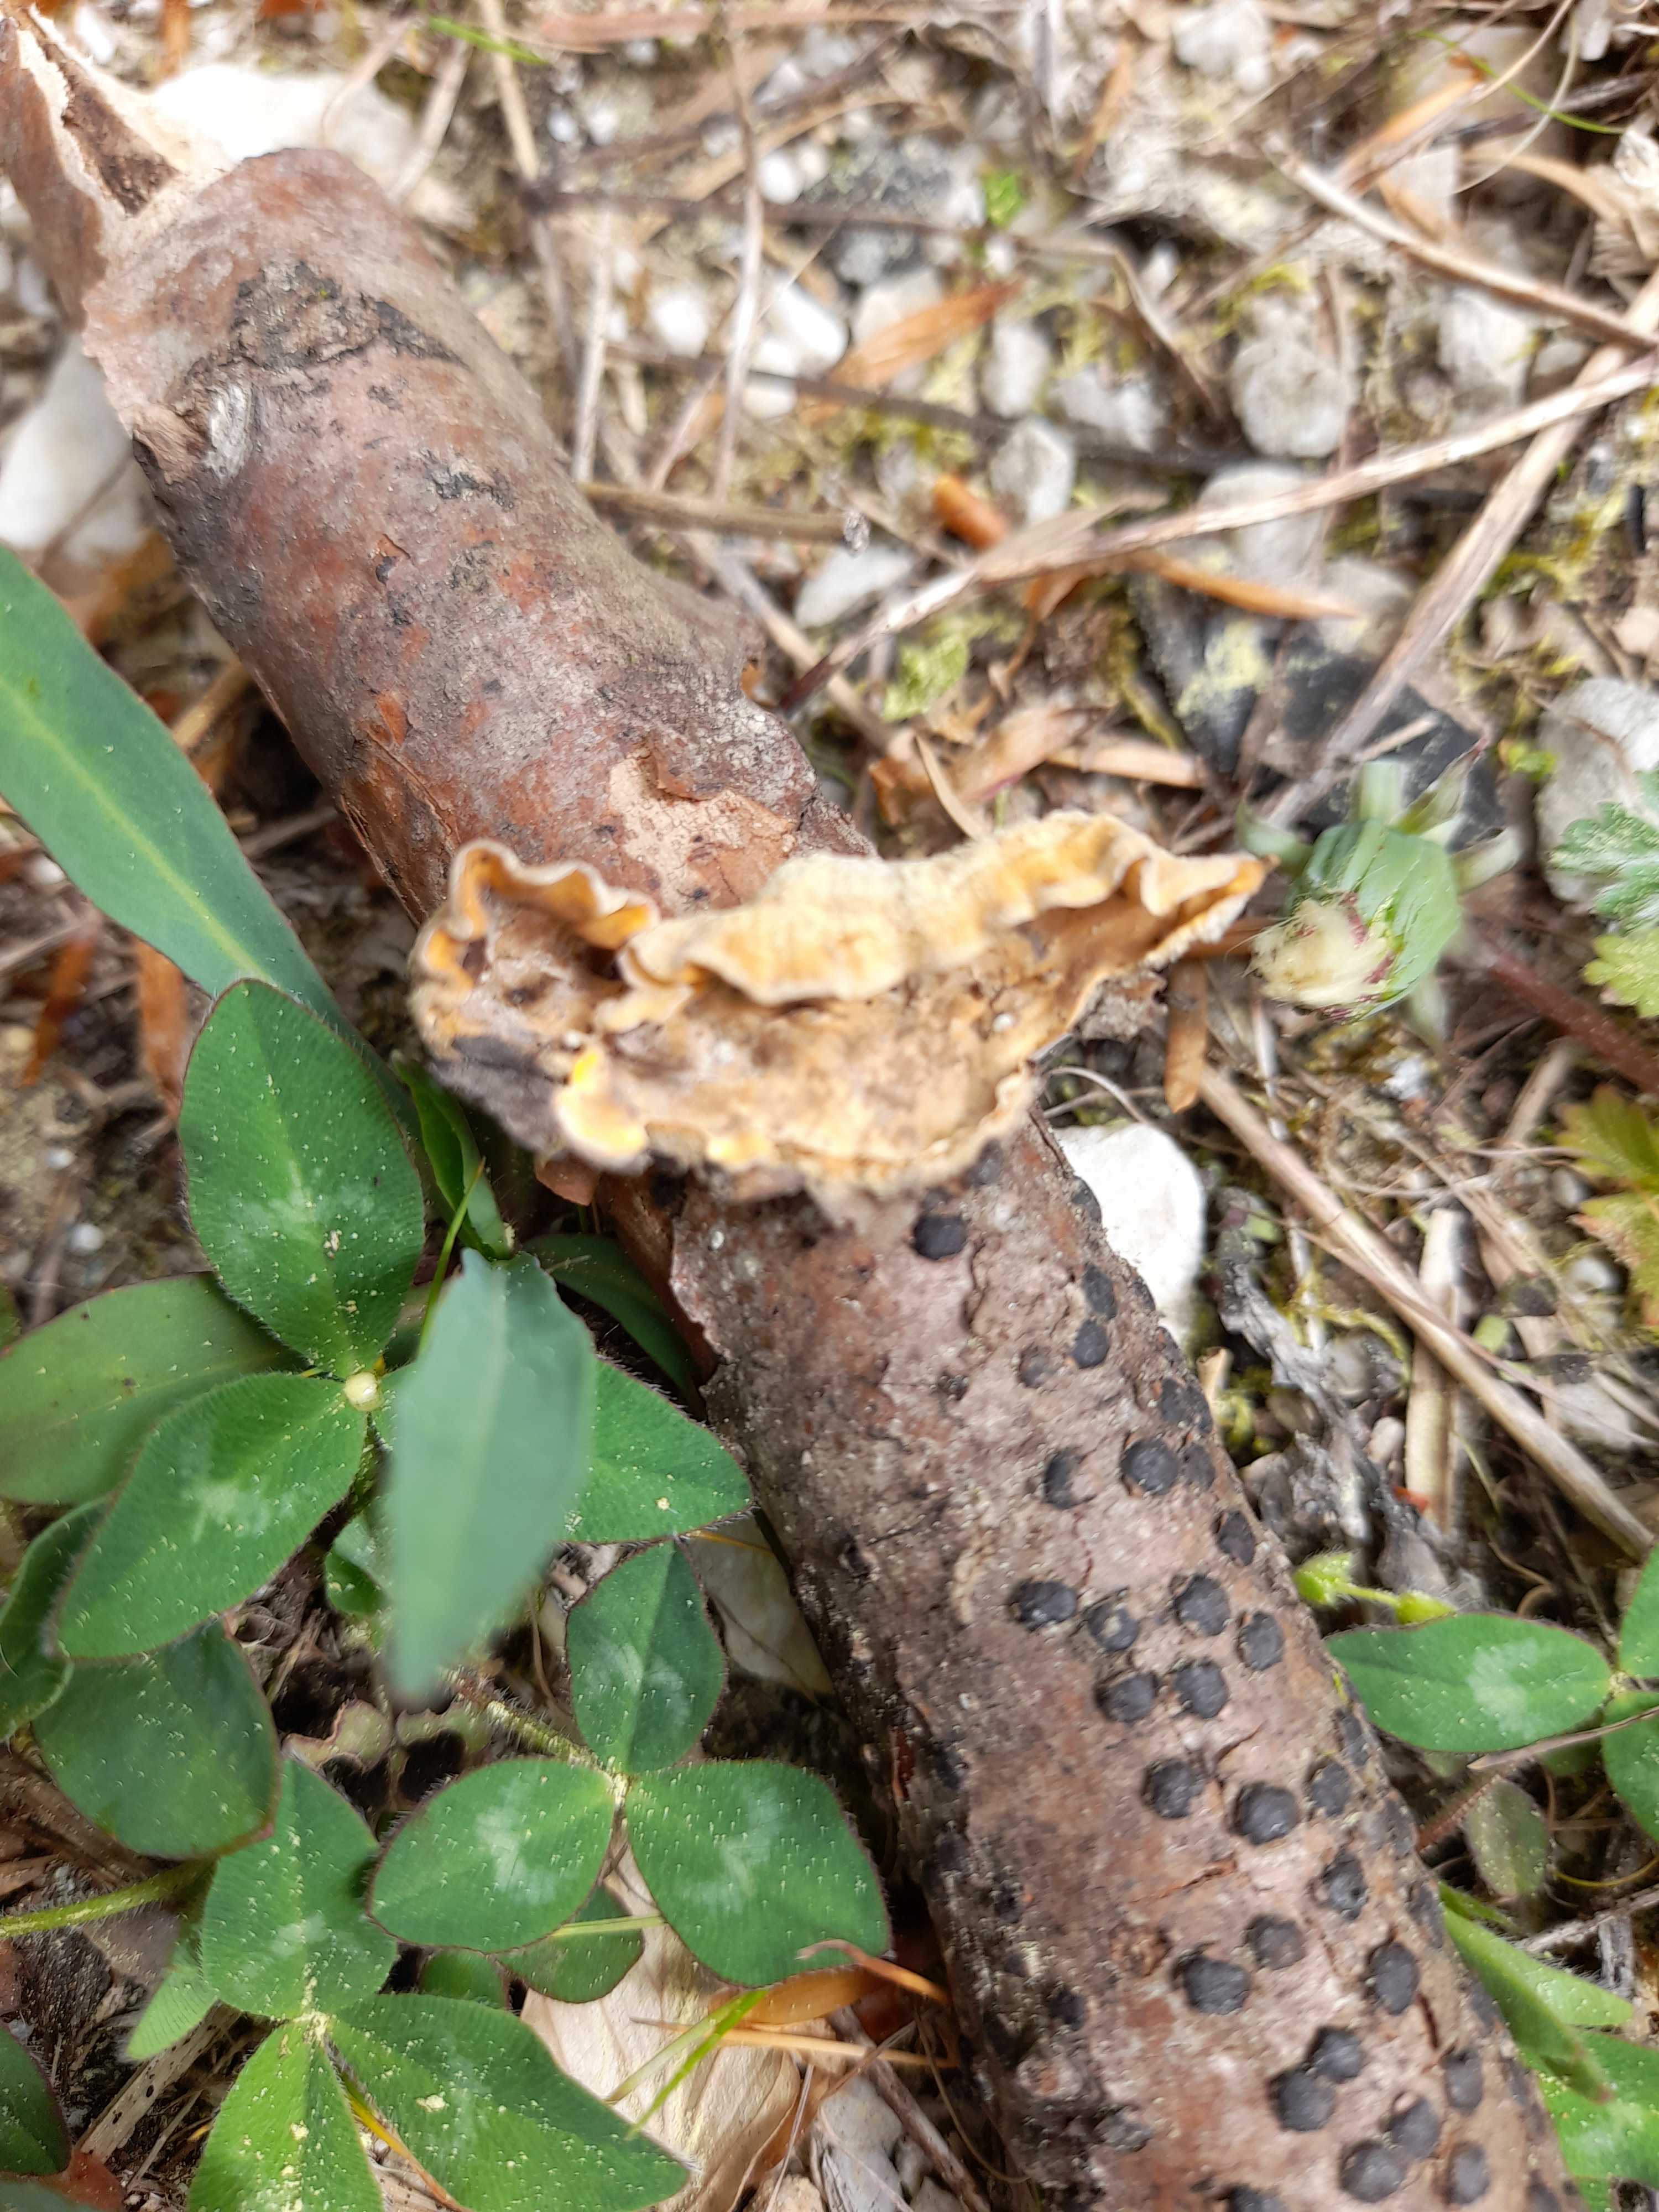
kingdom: Fungi
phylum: Basidiomycota
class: Agaricomycetes
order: Russulales
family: Stereaceae
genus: Stereum
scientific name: Stereum hirsutum
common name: håret lædersvamp
